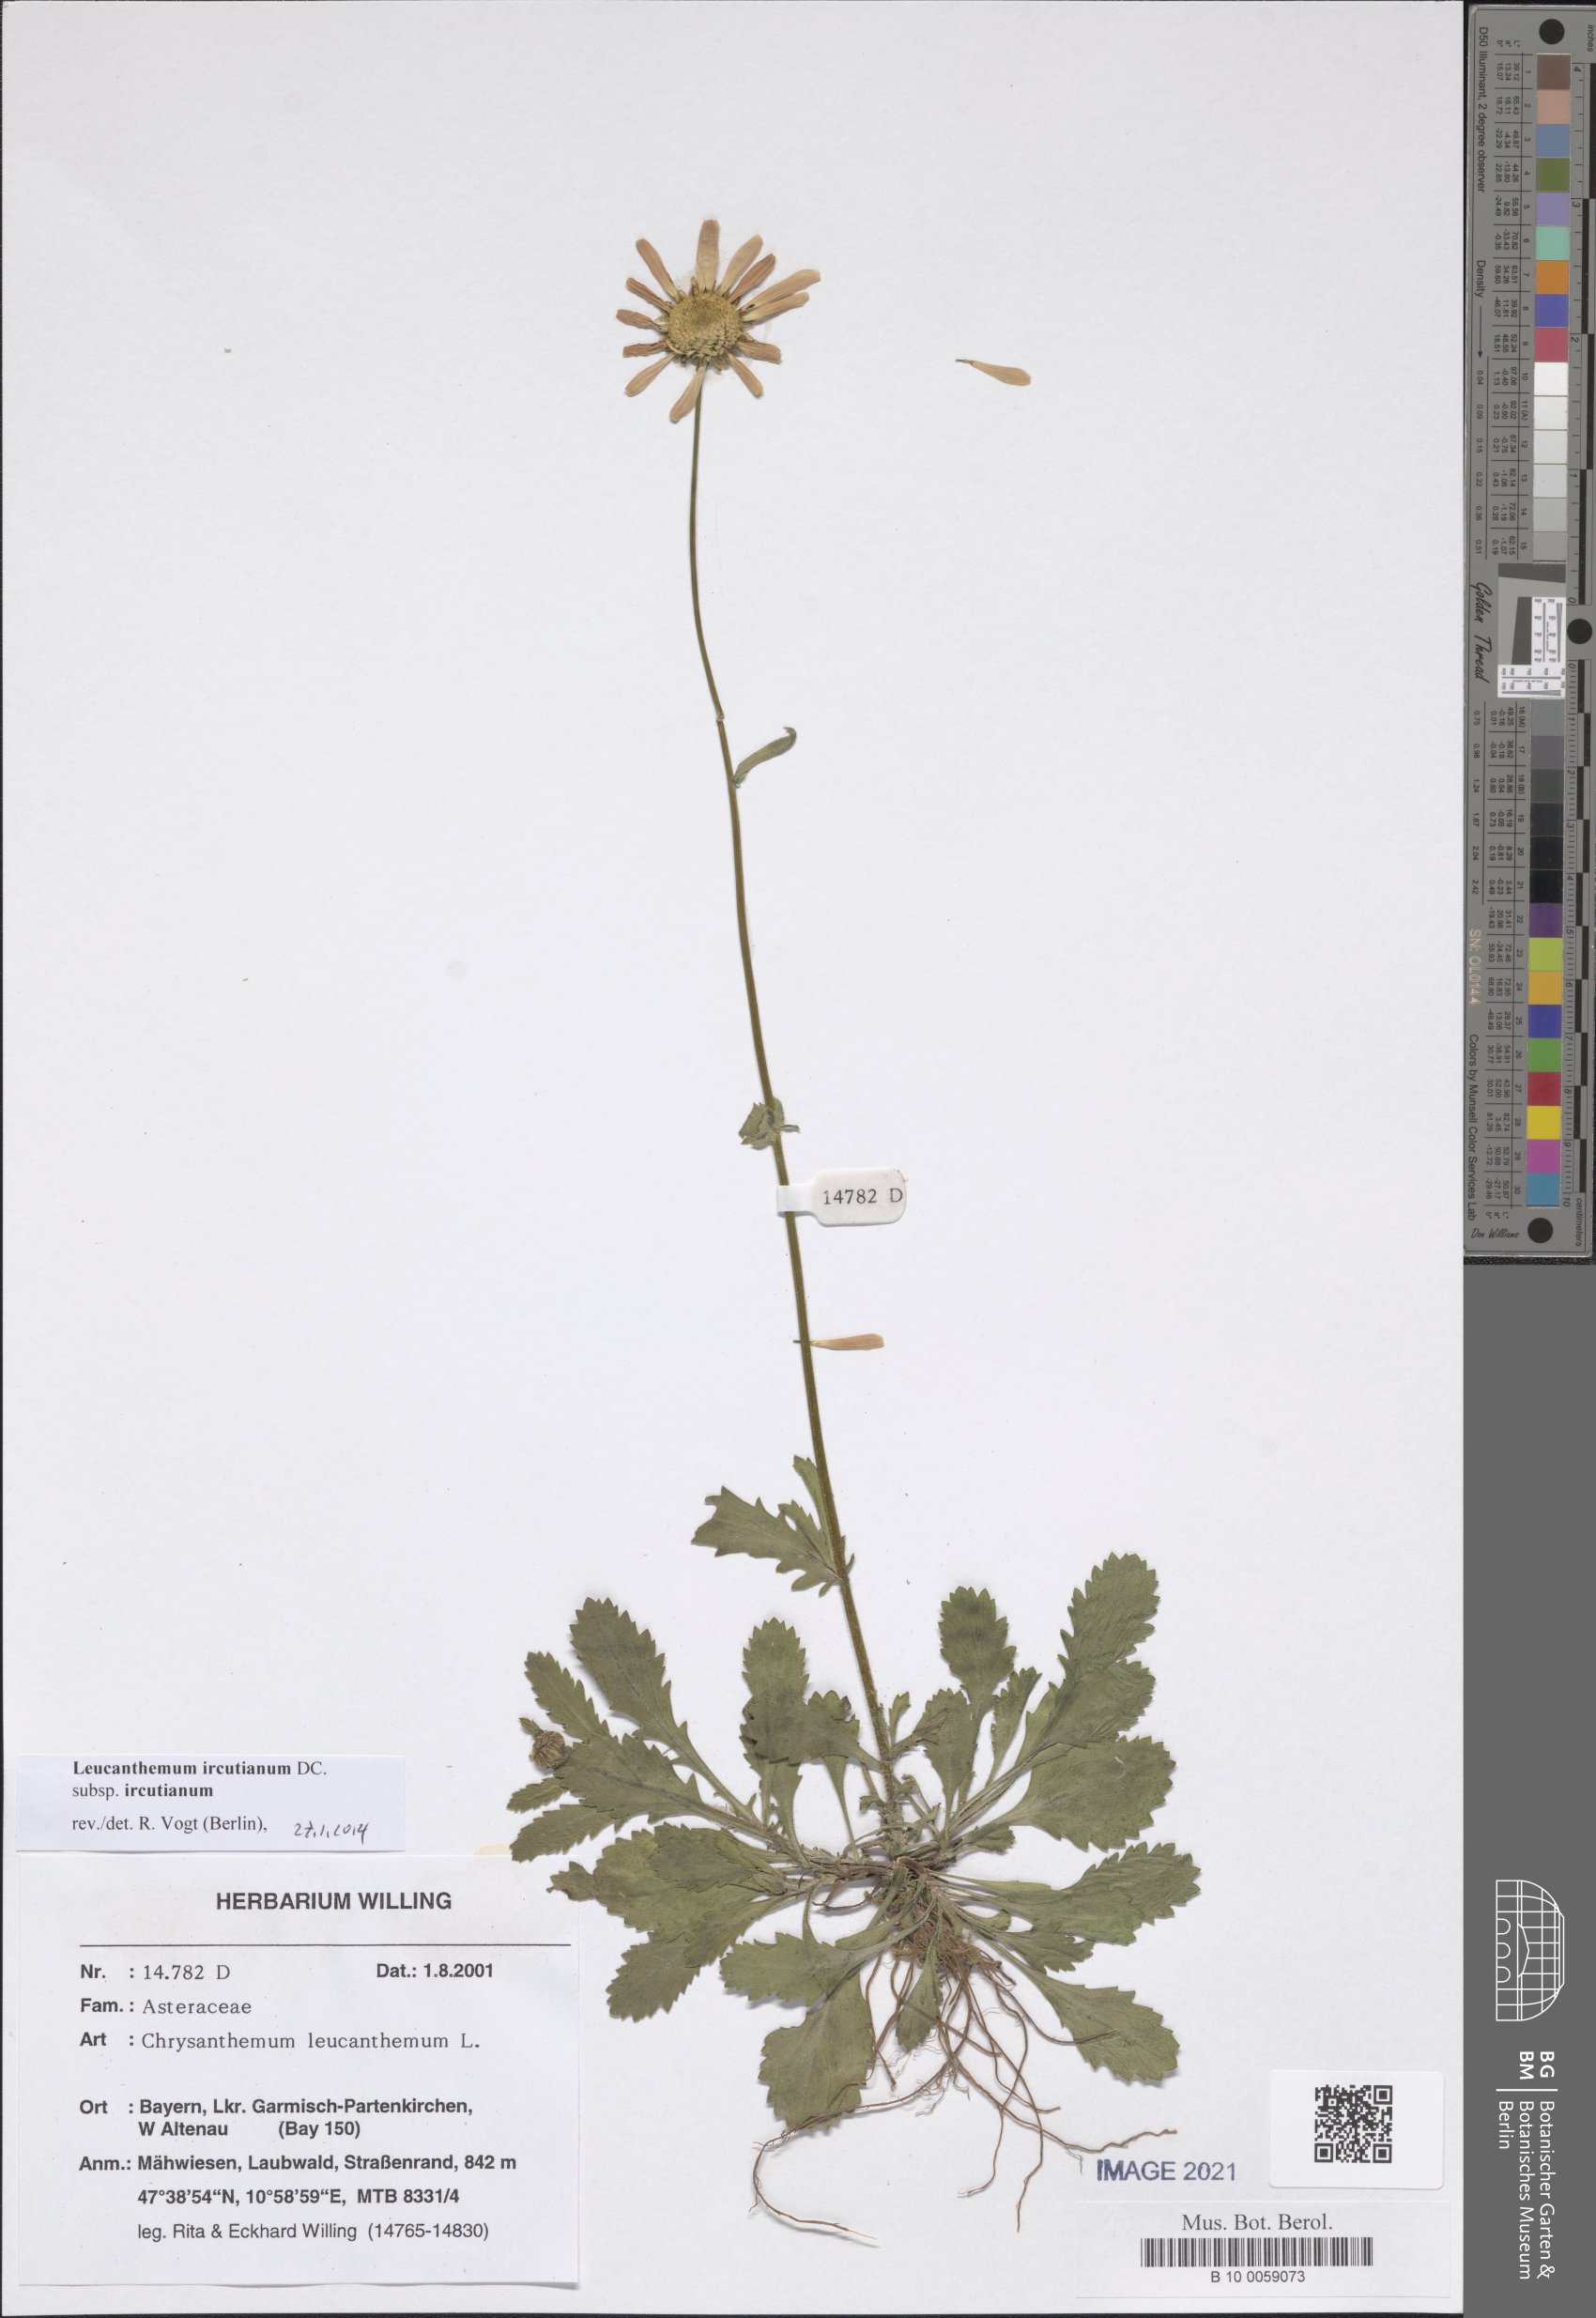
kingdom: Plantae
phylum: Tracheophyta
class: Magnoliopsida
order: Asterales
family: Asteraceae
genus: Leucanthemum
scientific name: Leucanthemum ircutianum
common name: Daisy
